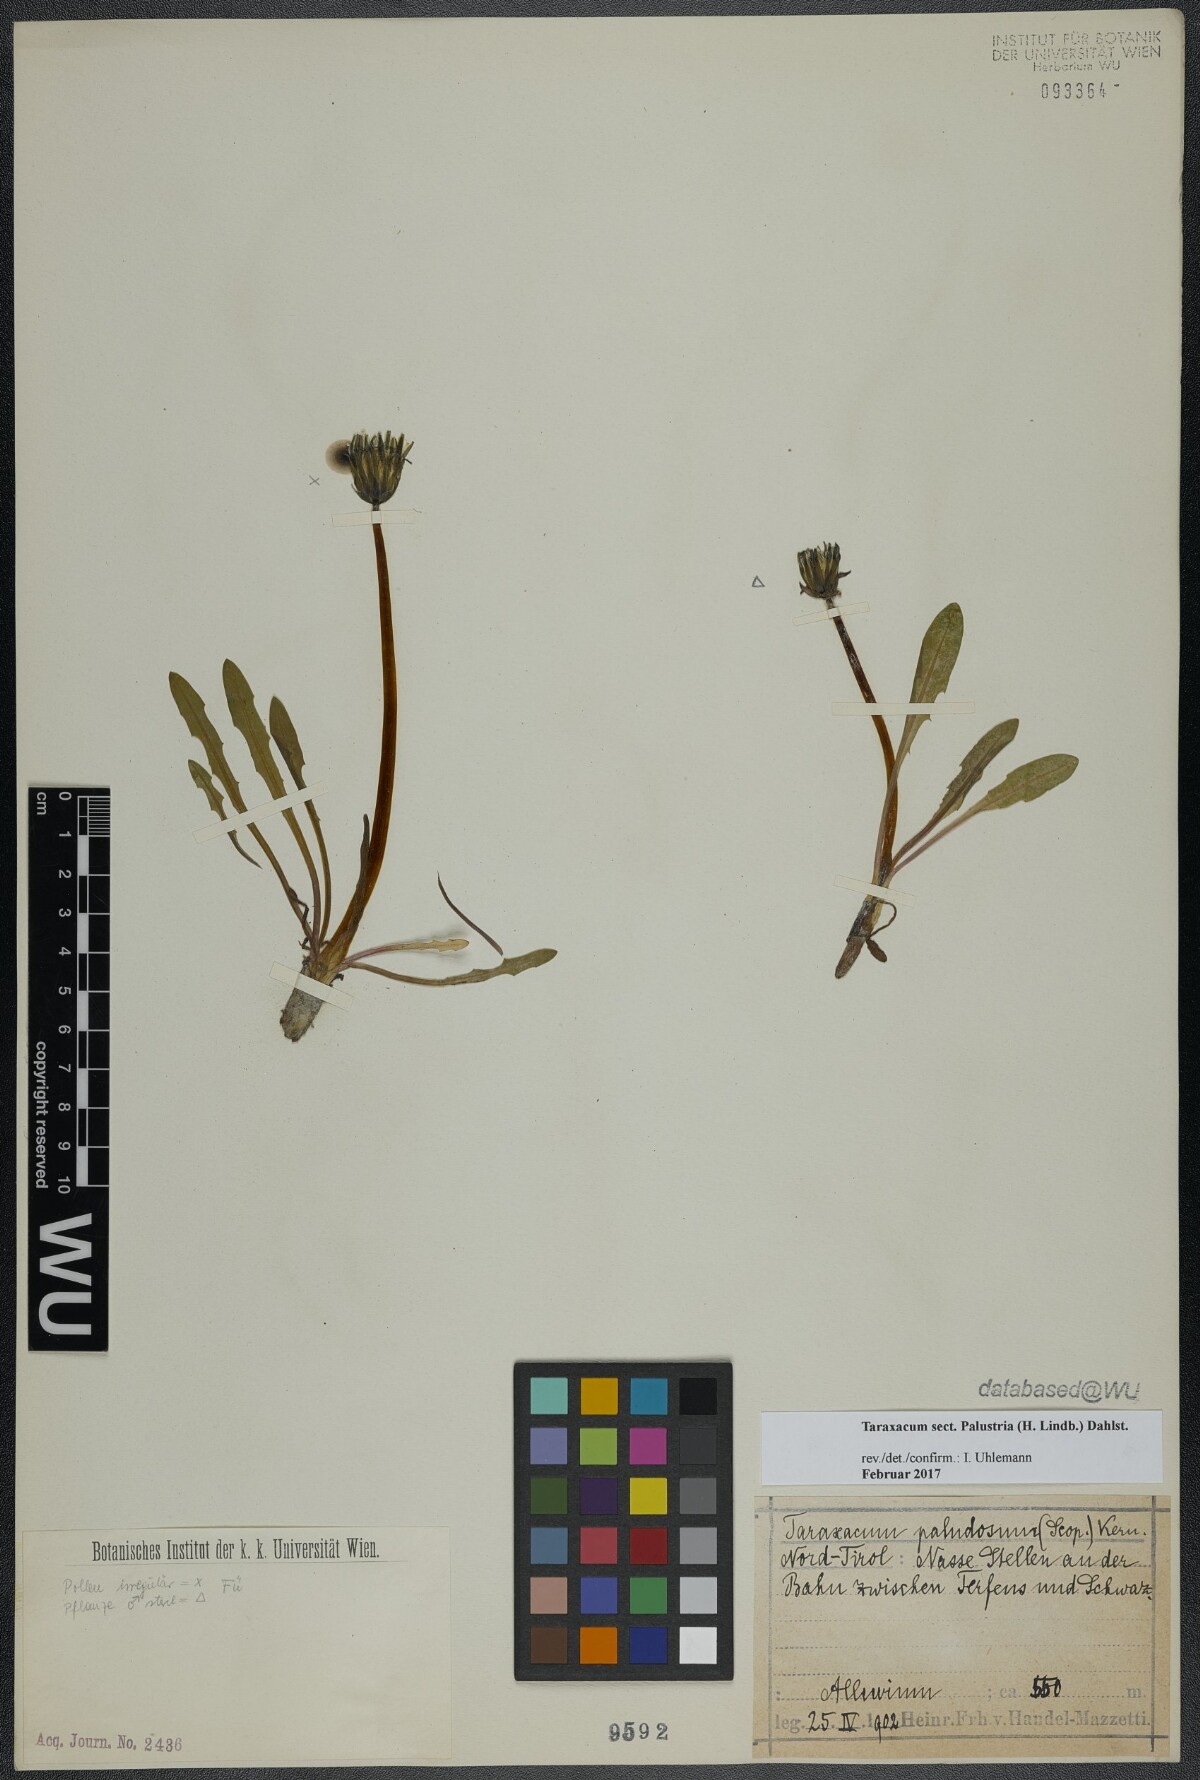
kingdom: Plantae
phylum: Tracheophyta
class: Magnoliopsida
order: Asterales
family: Asteraceae
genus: Taraxacum
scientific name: Taraxacum
